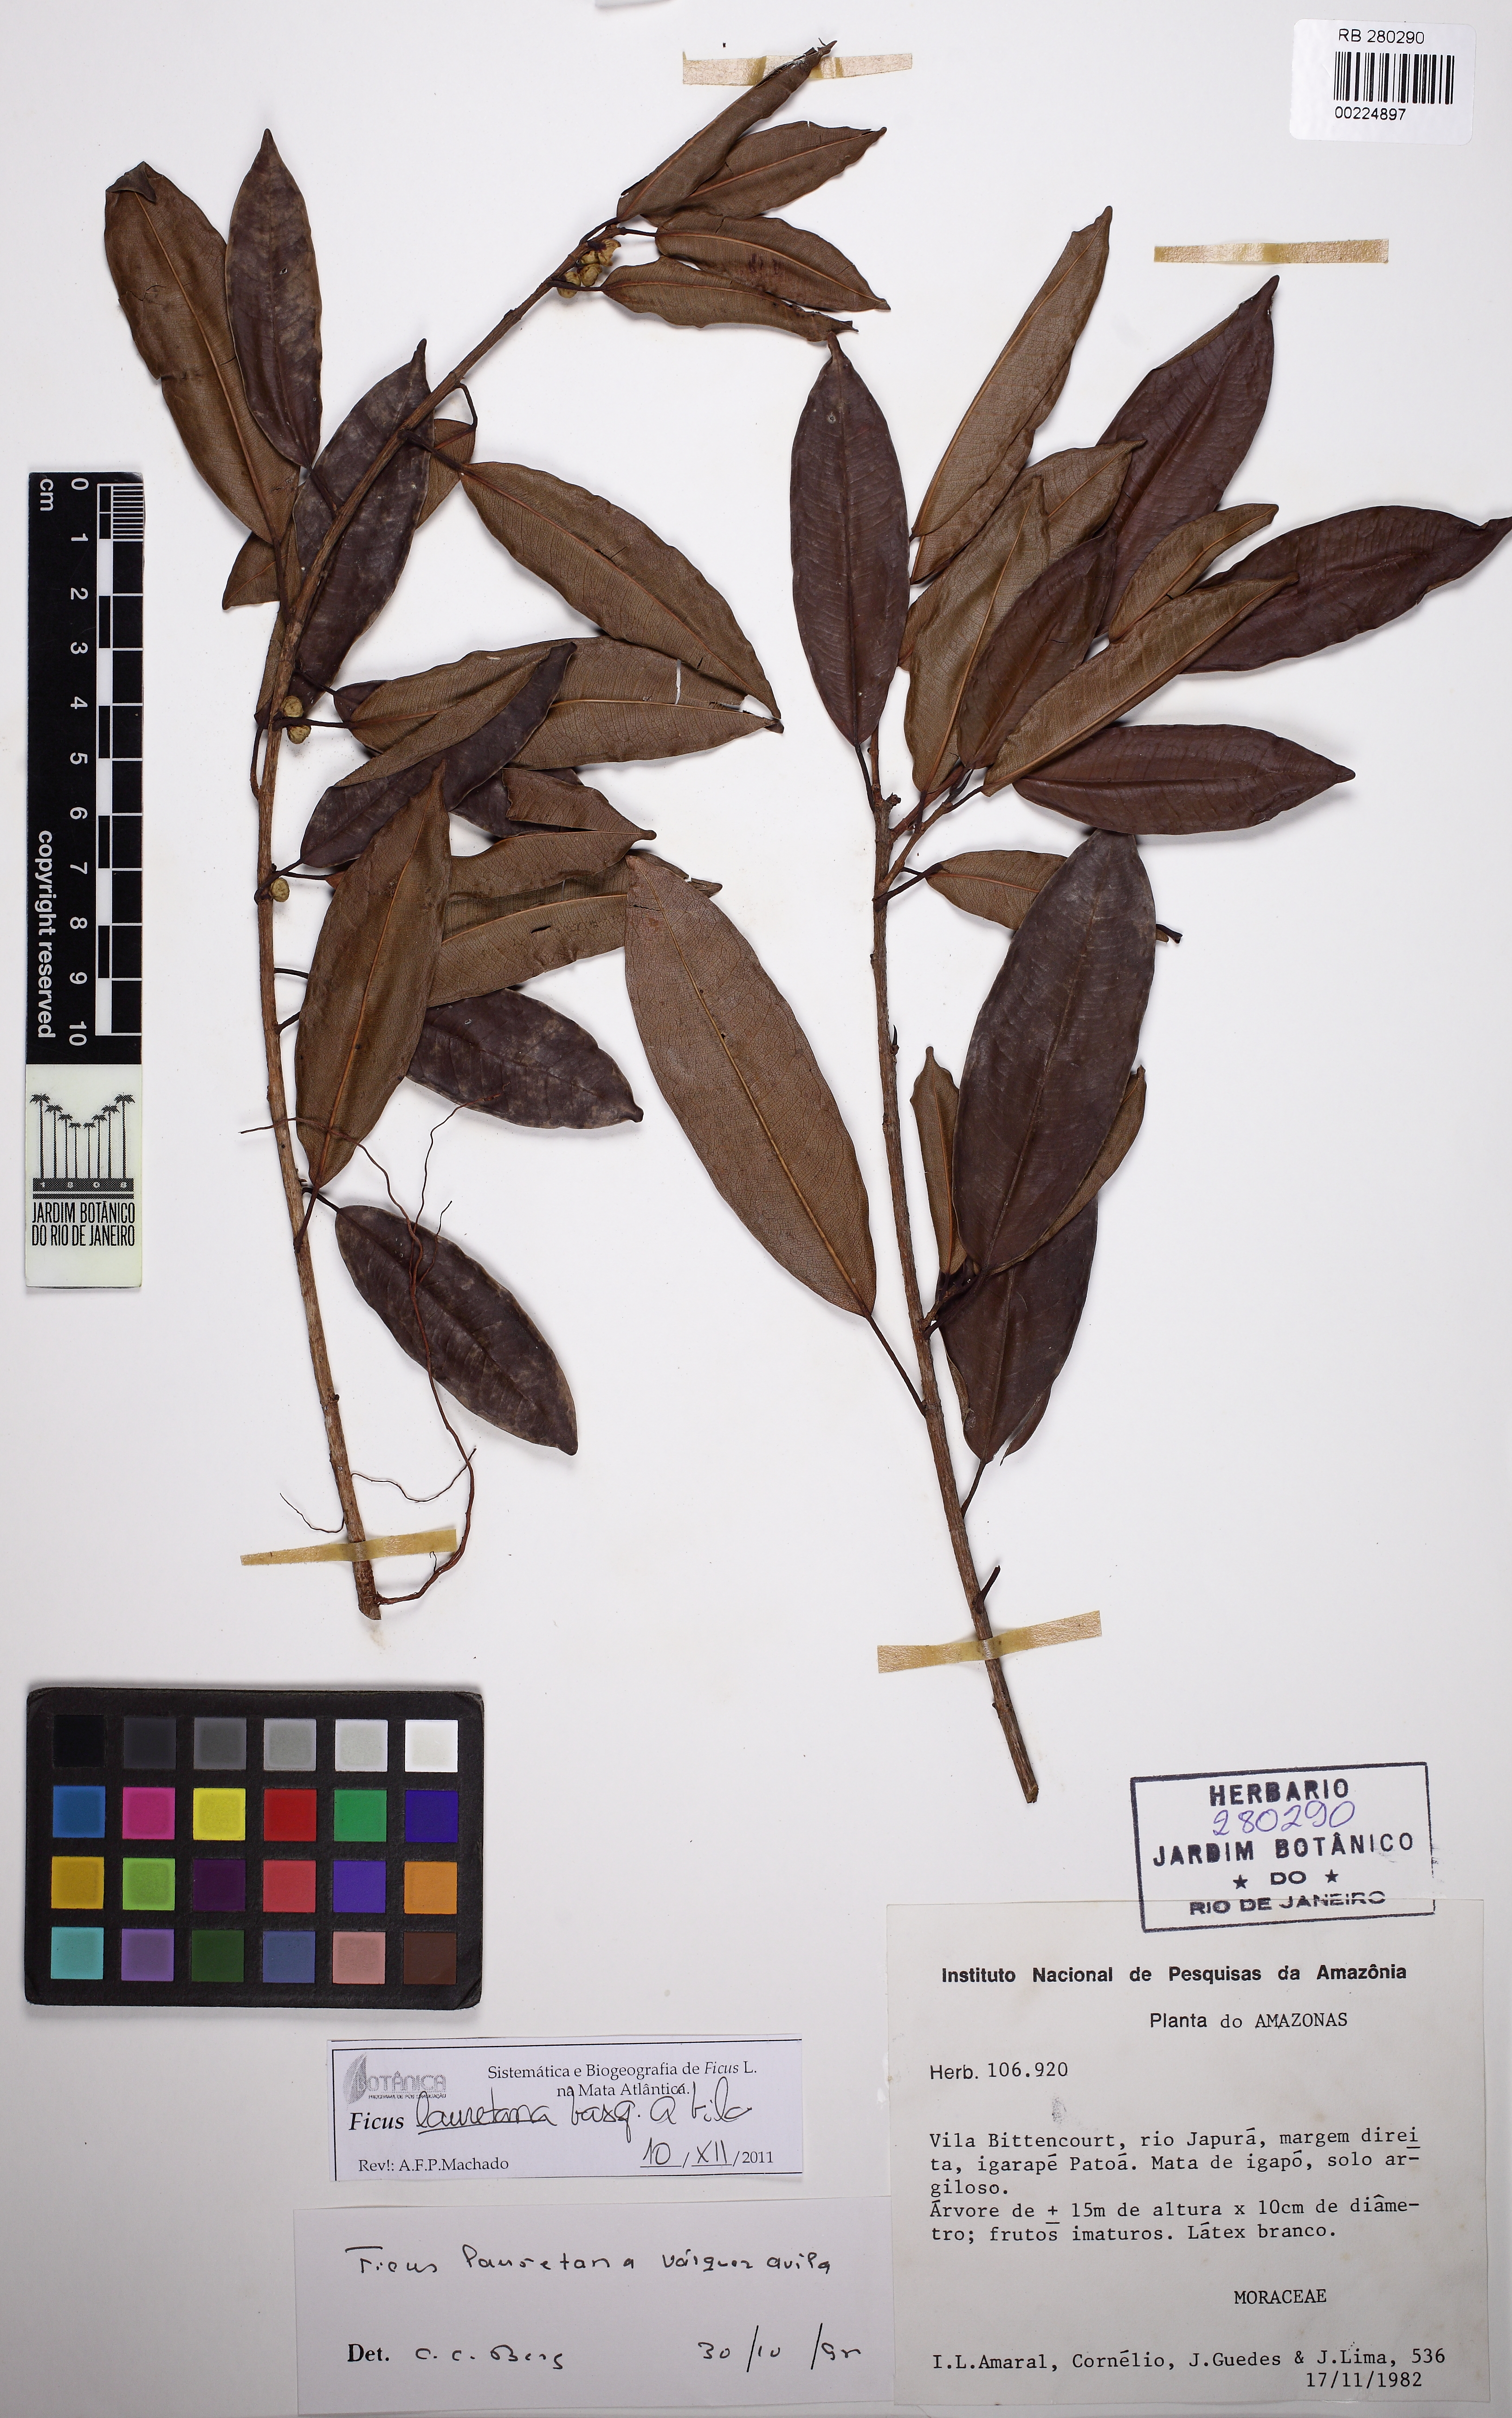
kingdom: Plantae
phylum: Tracheophyta
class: Magnoliopsida
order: Rosales
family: Moraceae
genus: Ficus
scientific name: Ficus lauretana
